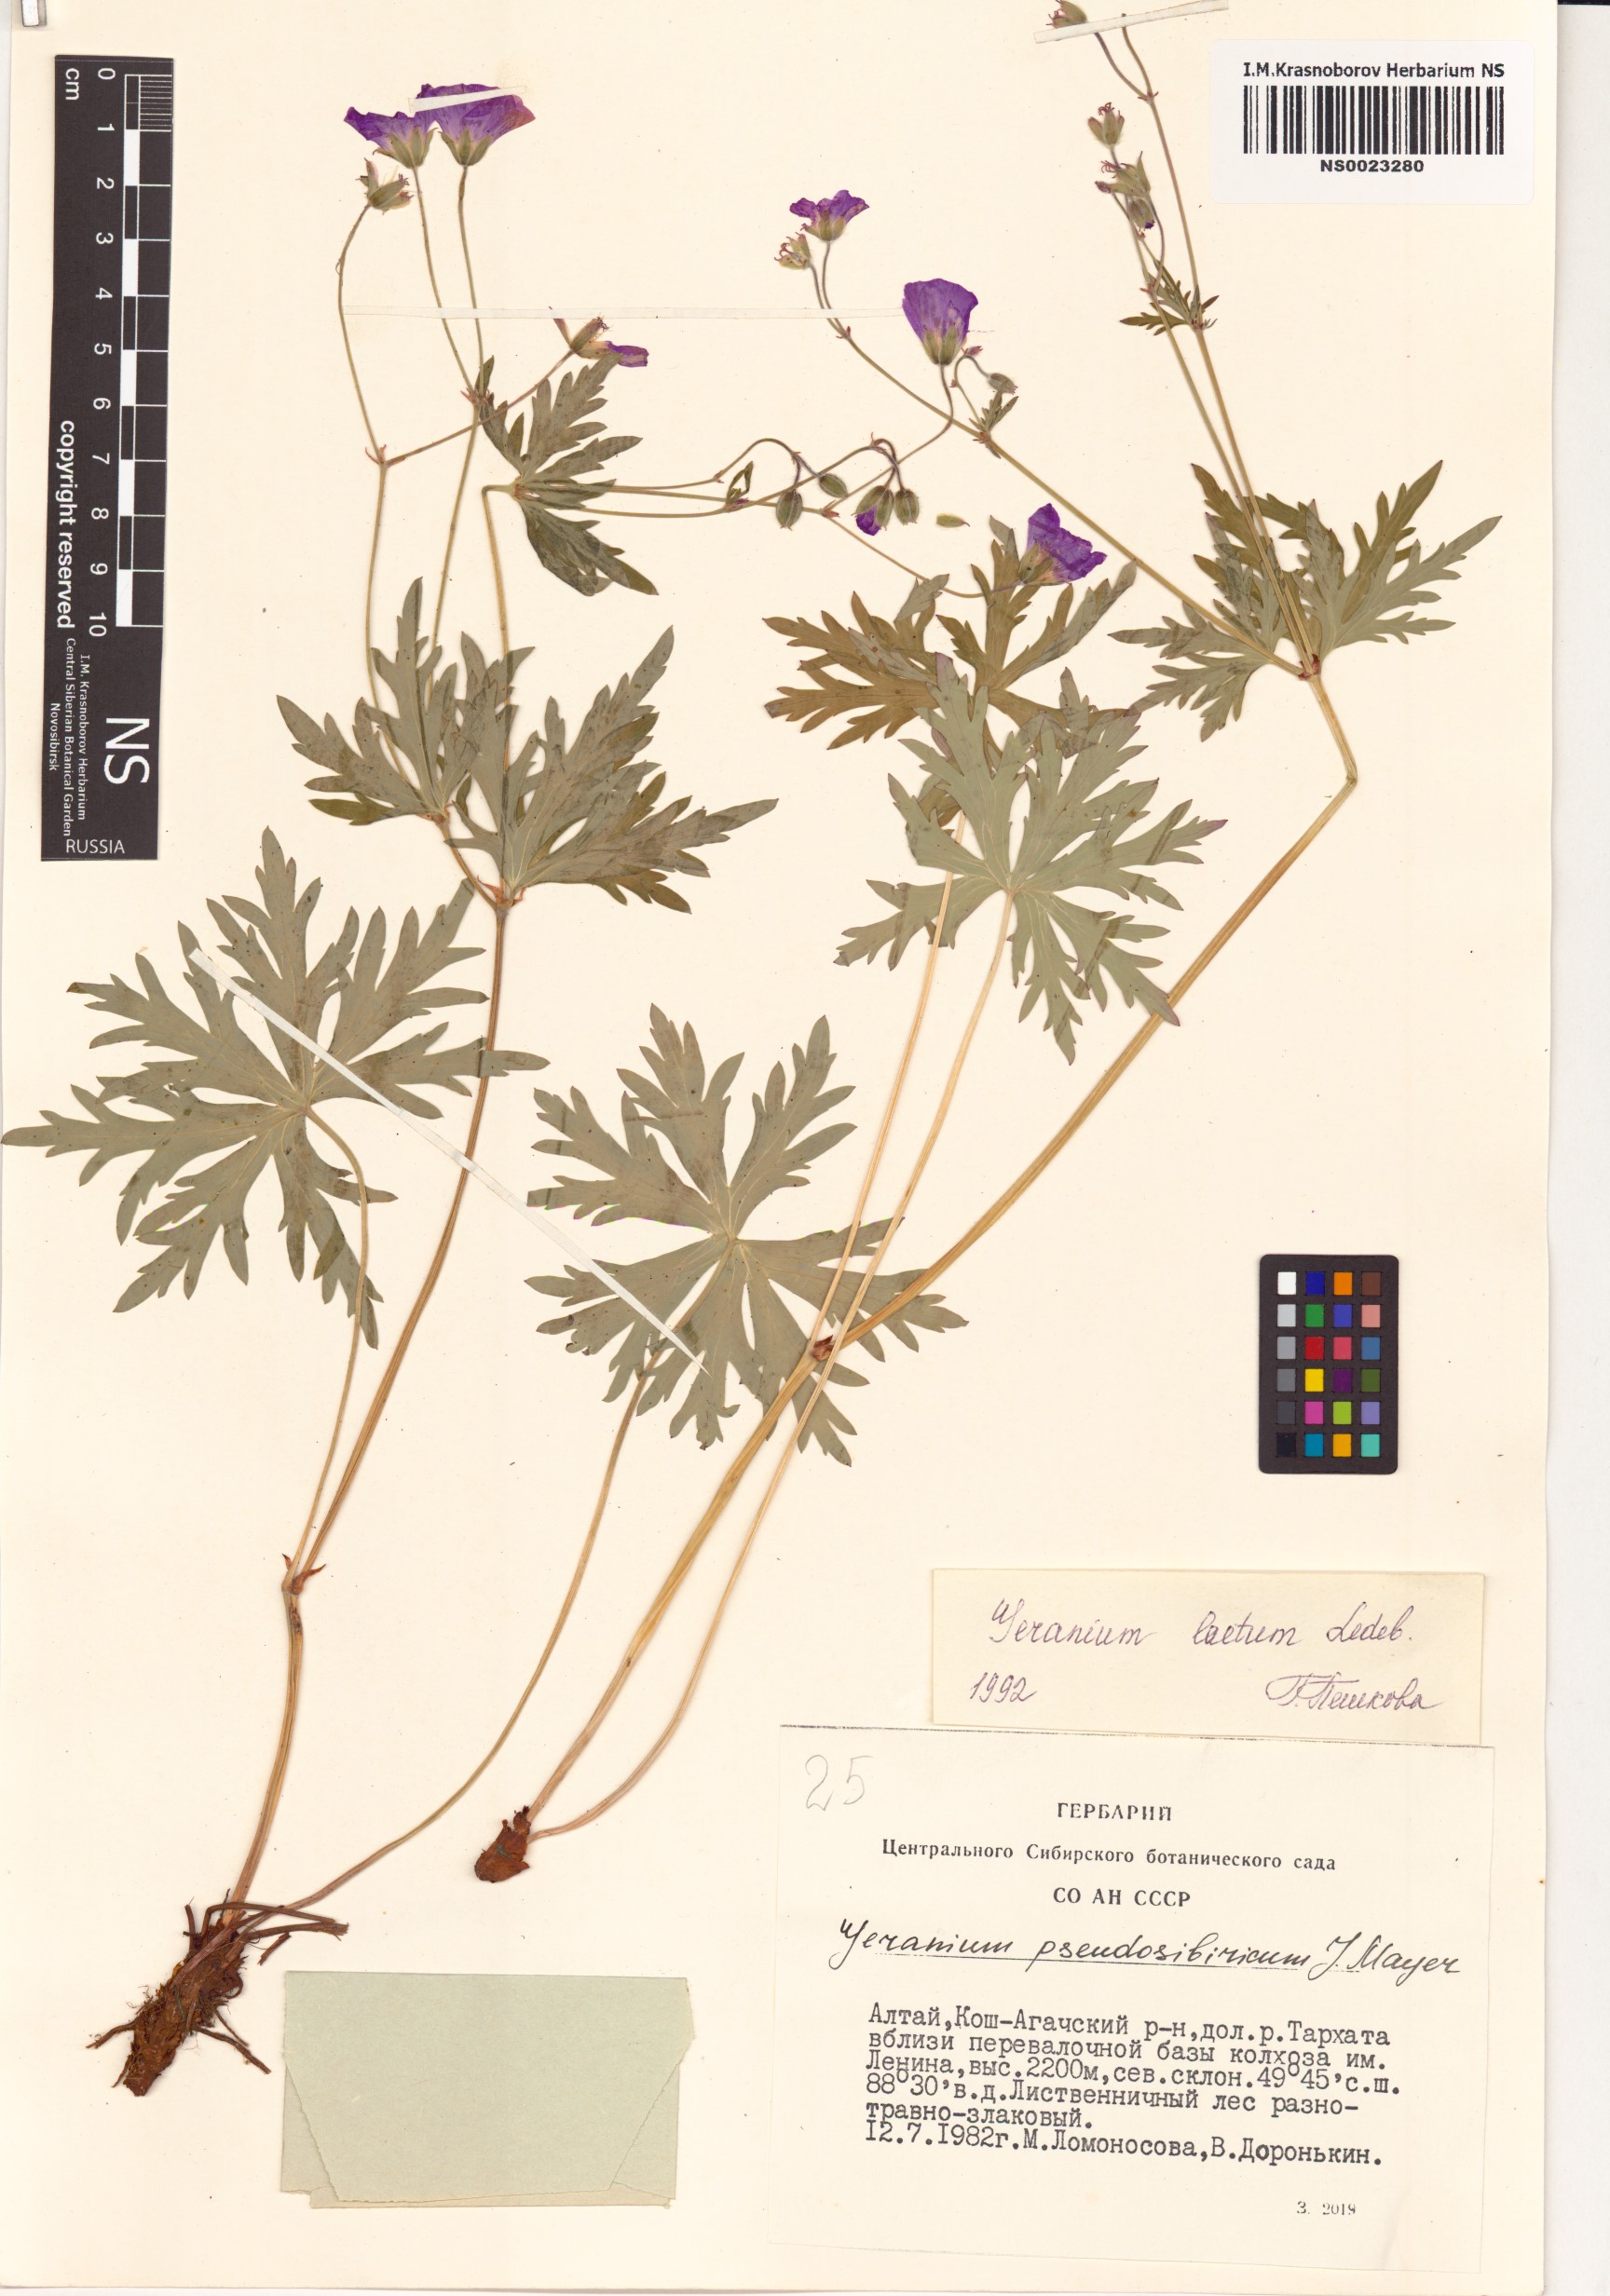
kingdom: Plantae
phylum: Tracheophyta
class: Magnoliopsida
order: Geraniales
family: Geraniaceae
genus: Geranium
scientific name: Geranium pseudosibiricum
